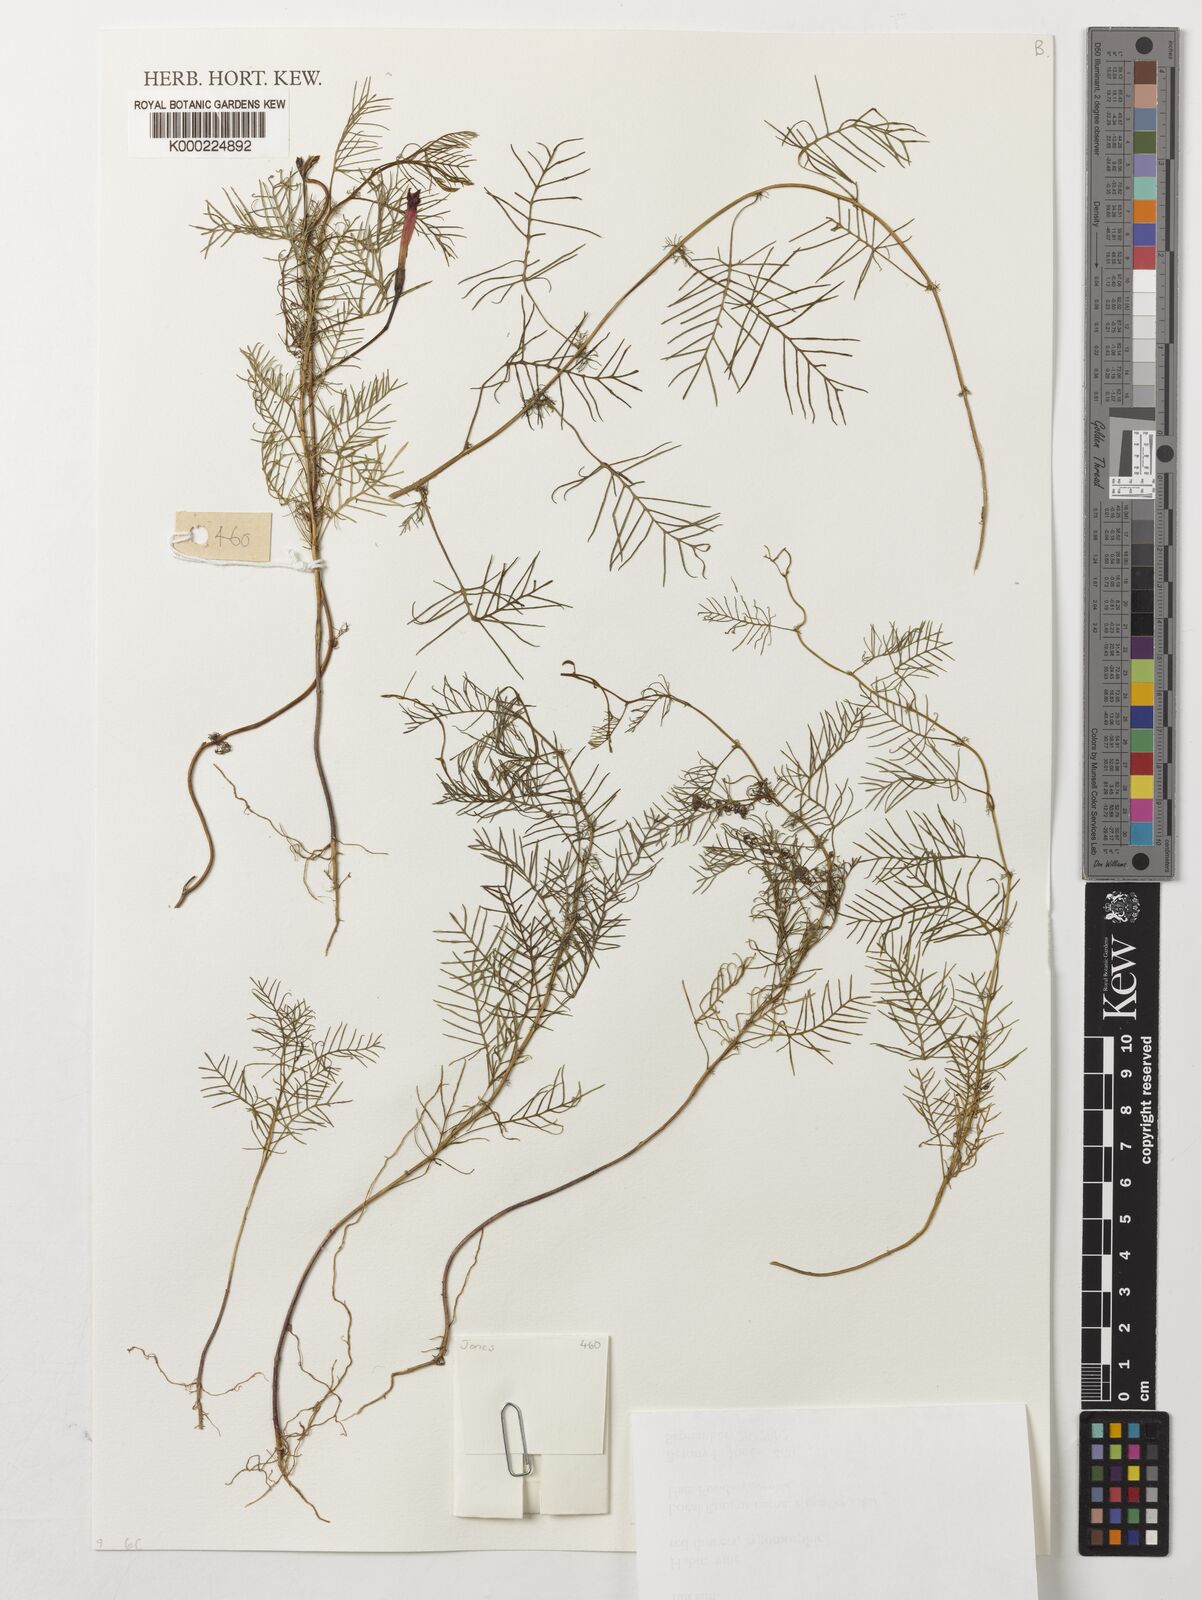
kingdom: Plantae
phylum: Tracheophyta
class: Magnoliopsida
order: Solanales
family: Convolvulaceae
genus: Ipomoea
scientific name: Ipomoea quamoclit
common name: Cypress vine
